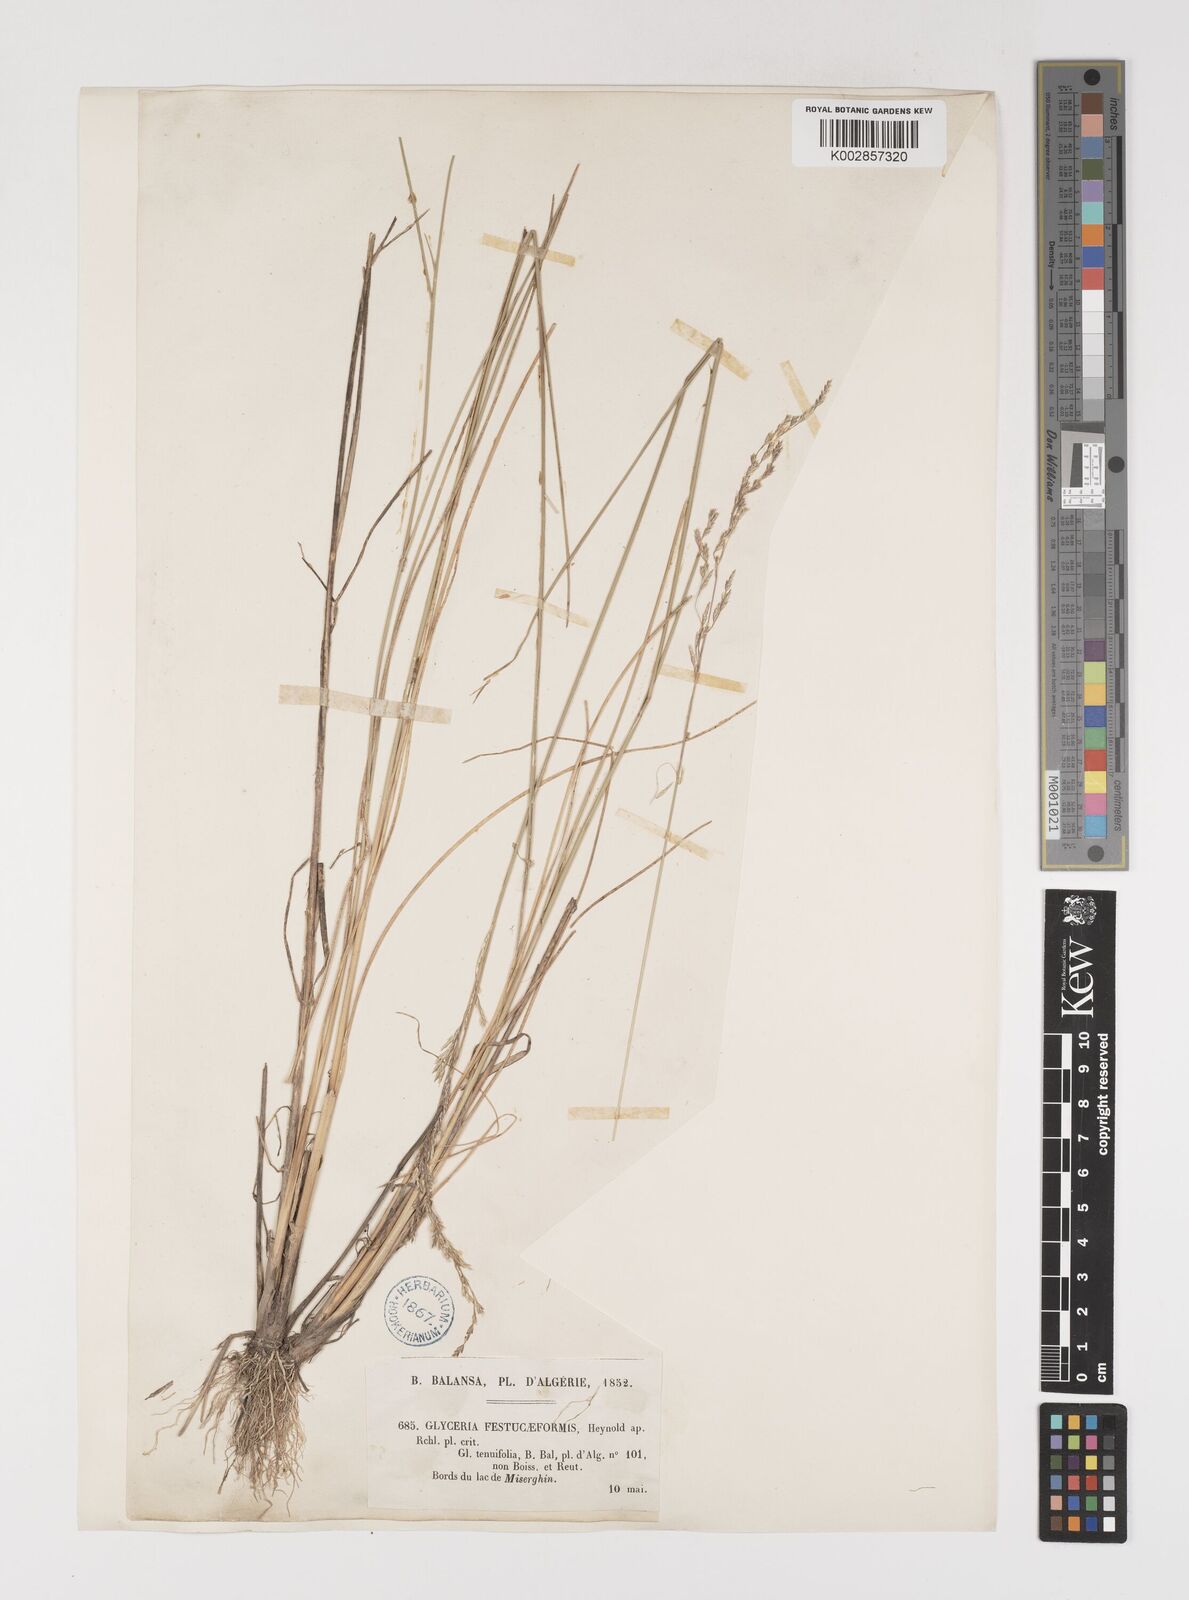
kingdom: Plantae
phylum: Tracheophyta
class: Liliopsida
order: Poales
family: Poaceae
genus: Puccinellia
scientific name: Puccinellia distans
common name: Weeping alkaligrass
